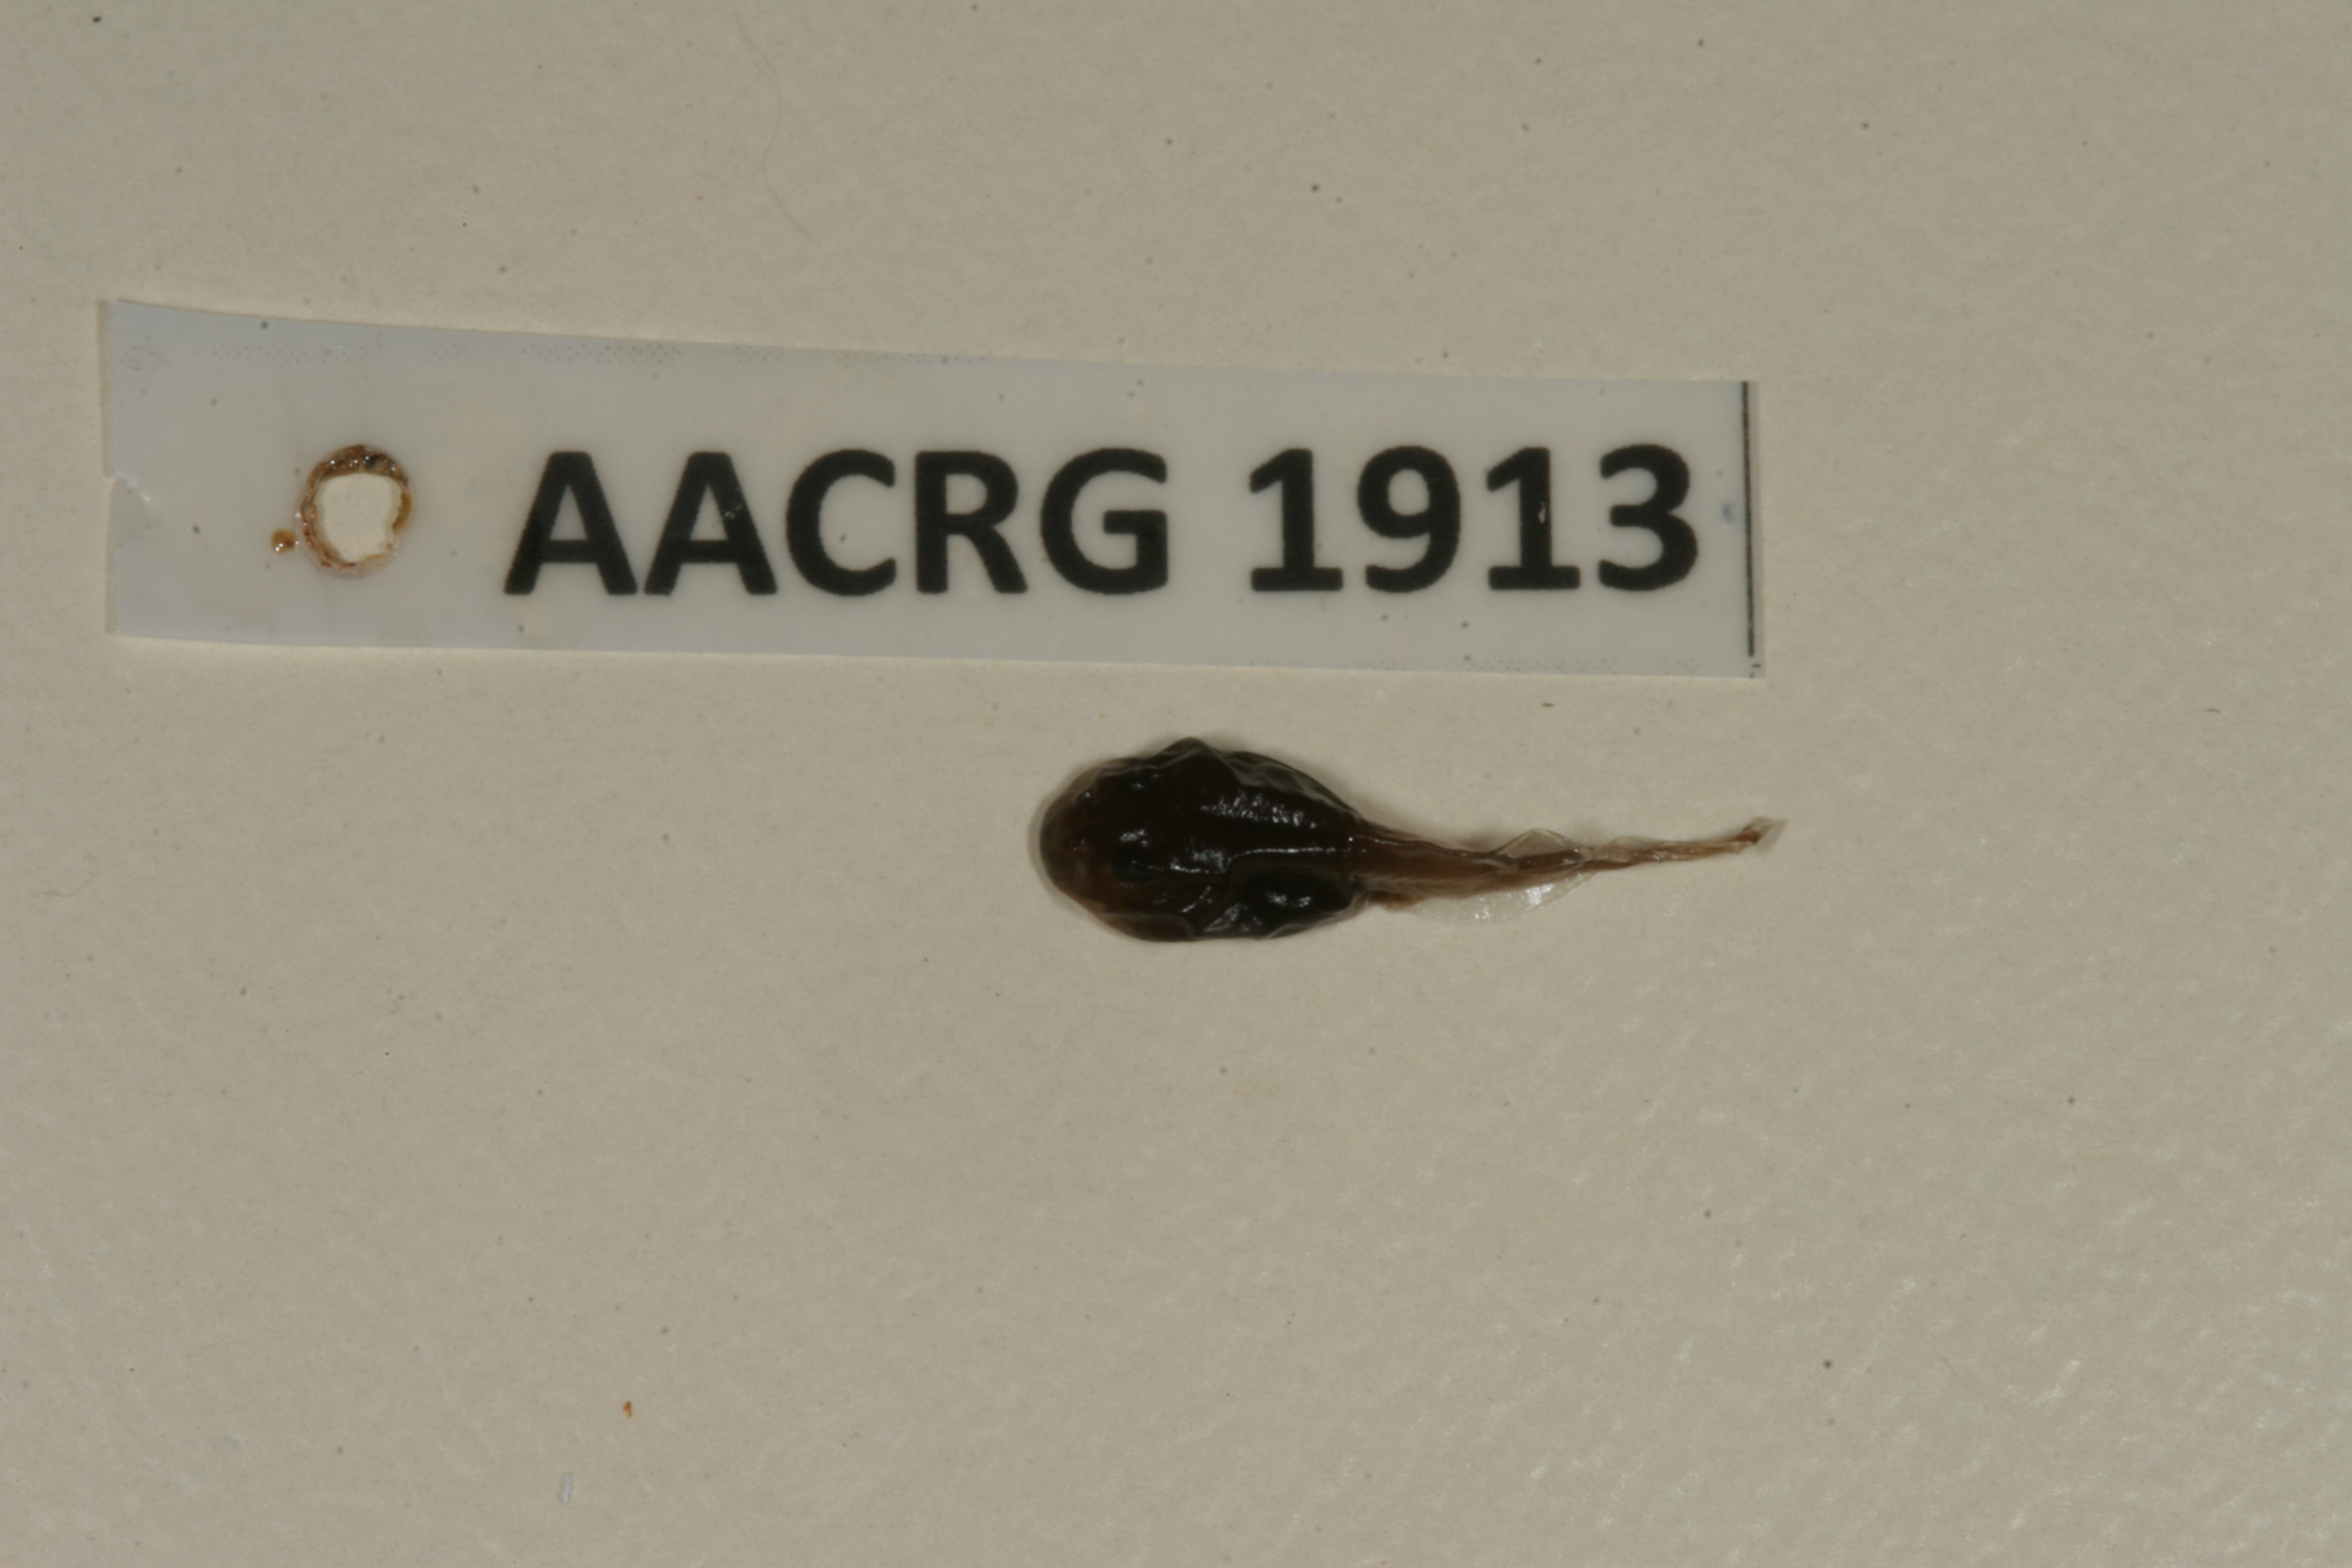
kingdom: Animalia
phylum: Chordata
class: Amphibia
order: Anura
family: Bufonidae
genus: Sclerophrys
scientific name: Sclerophrys poweri
